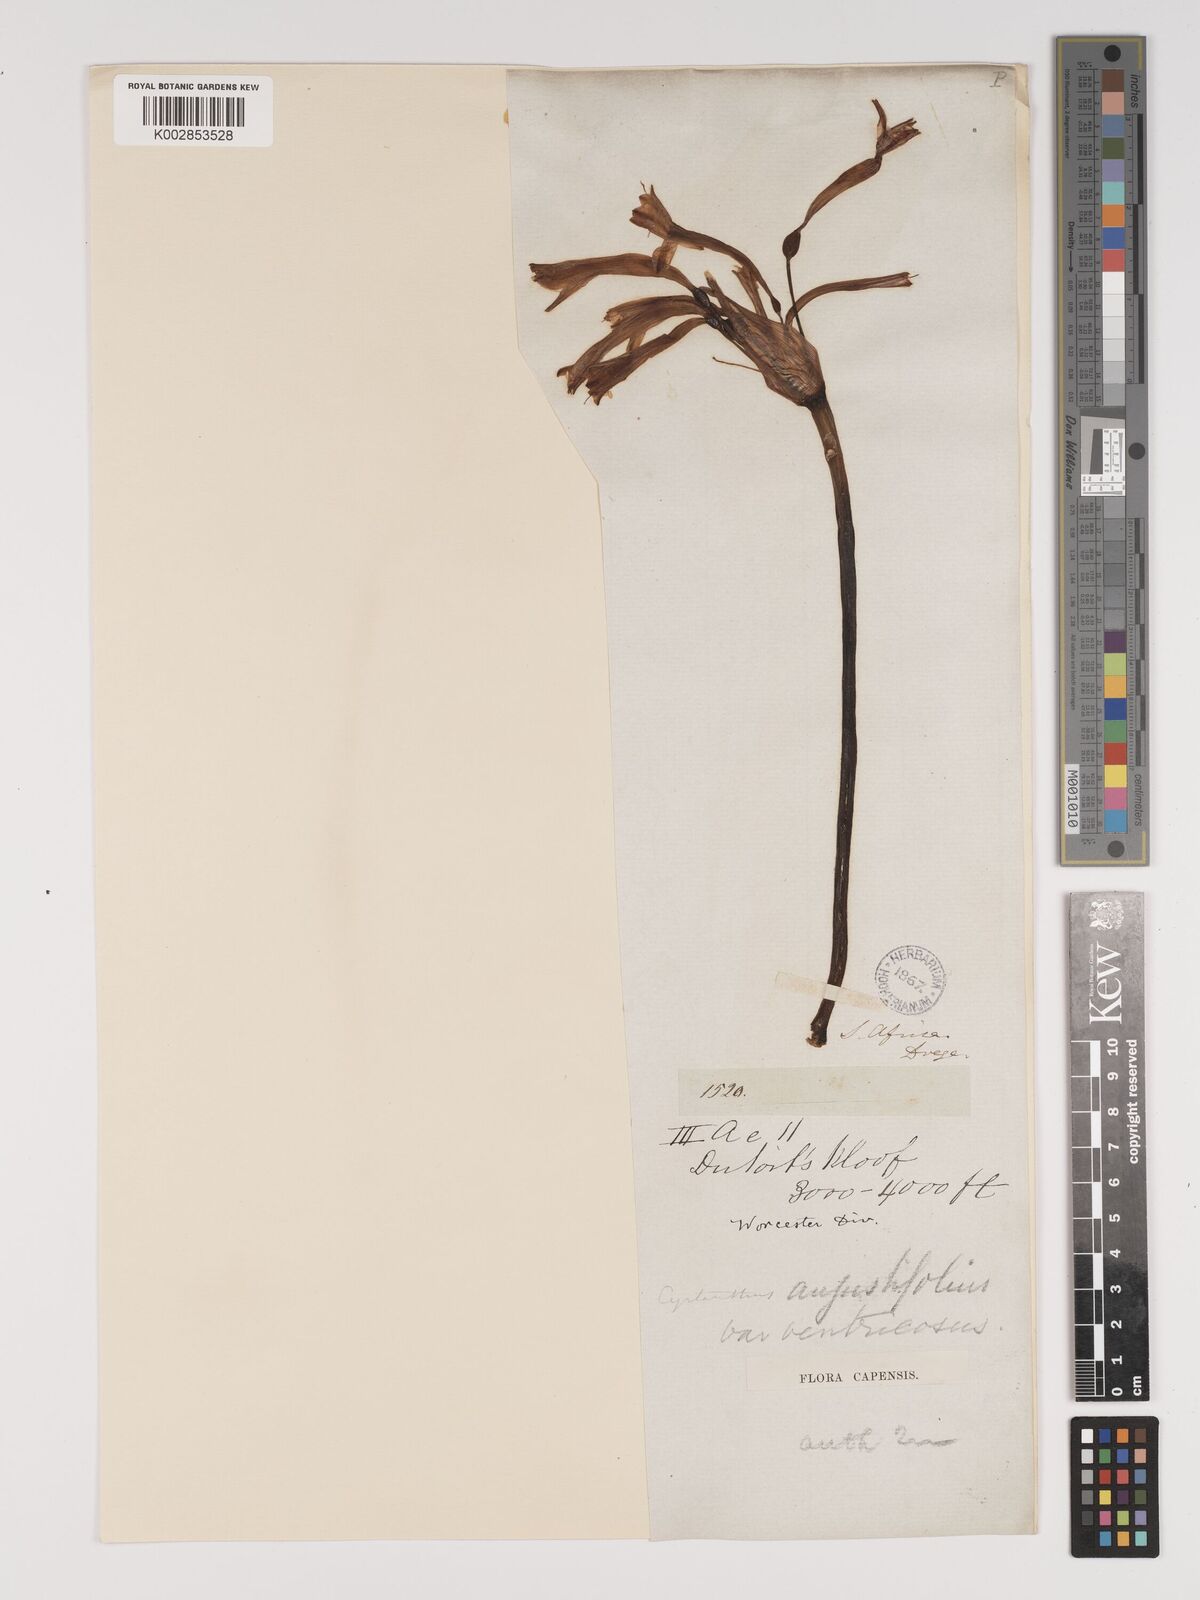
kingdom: Plantae
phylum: Tracheophyta
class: Liliopsida
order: Asparagales
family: Amaryllidaceae
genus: Cyrtanthus
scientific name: Cyrtanthus angustifolius
